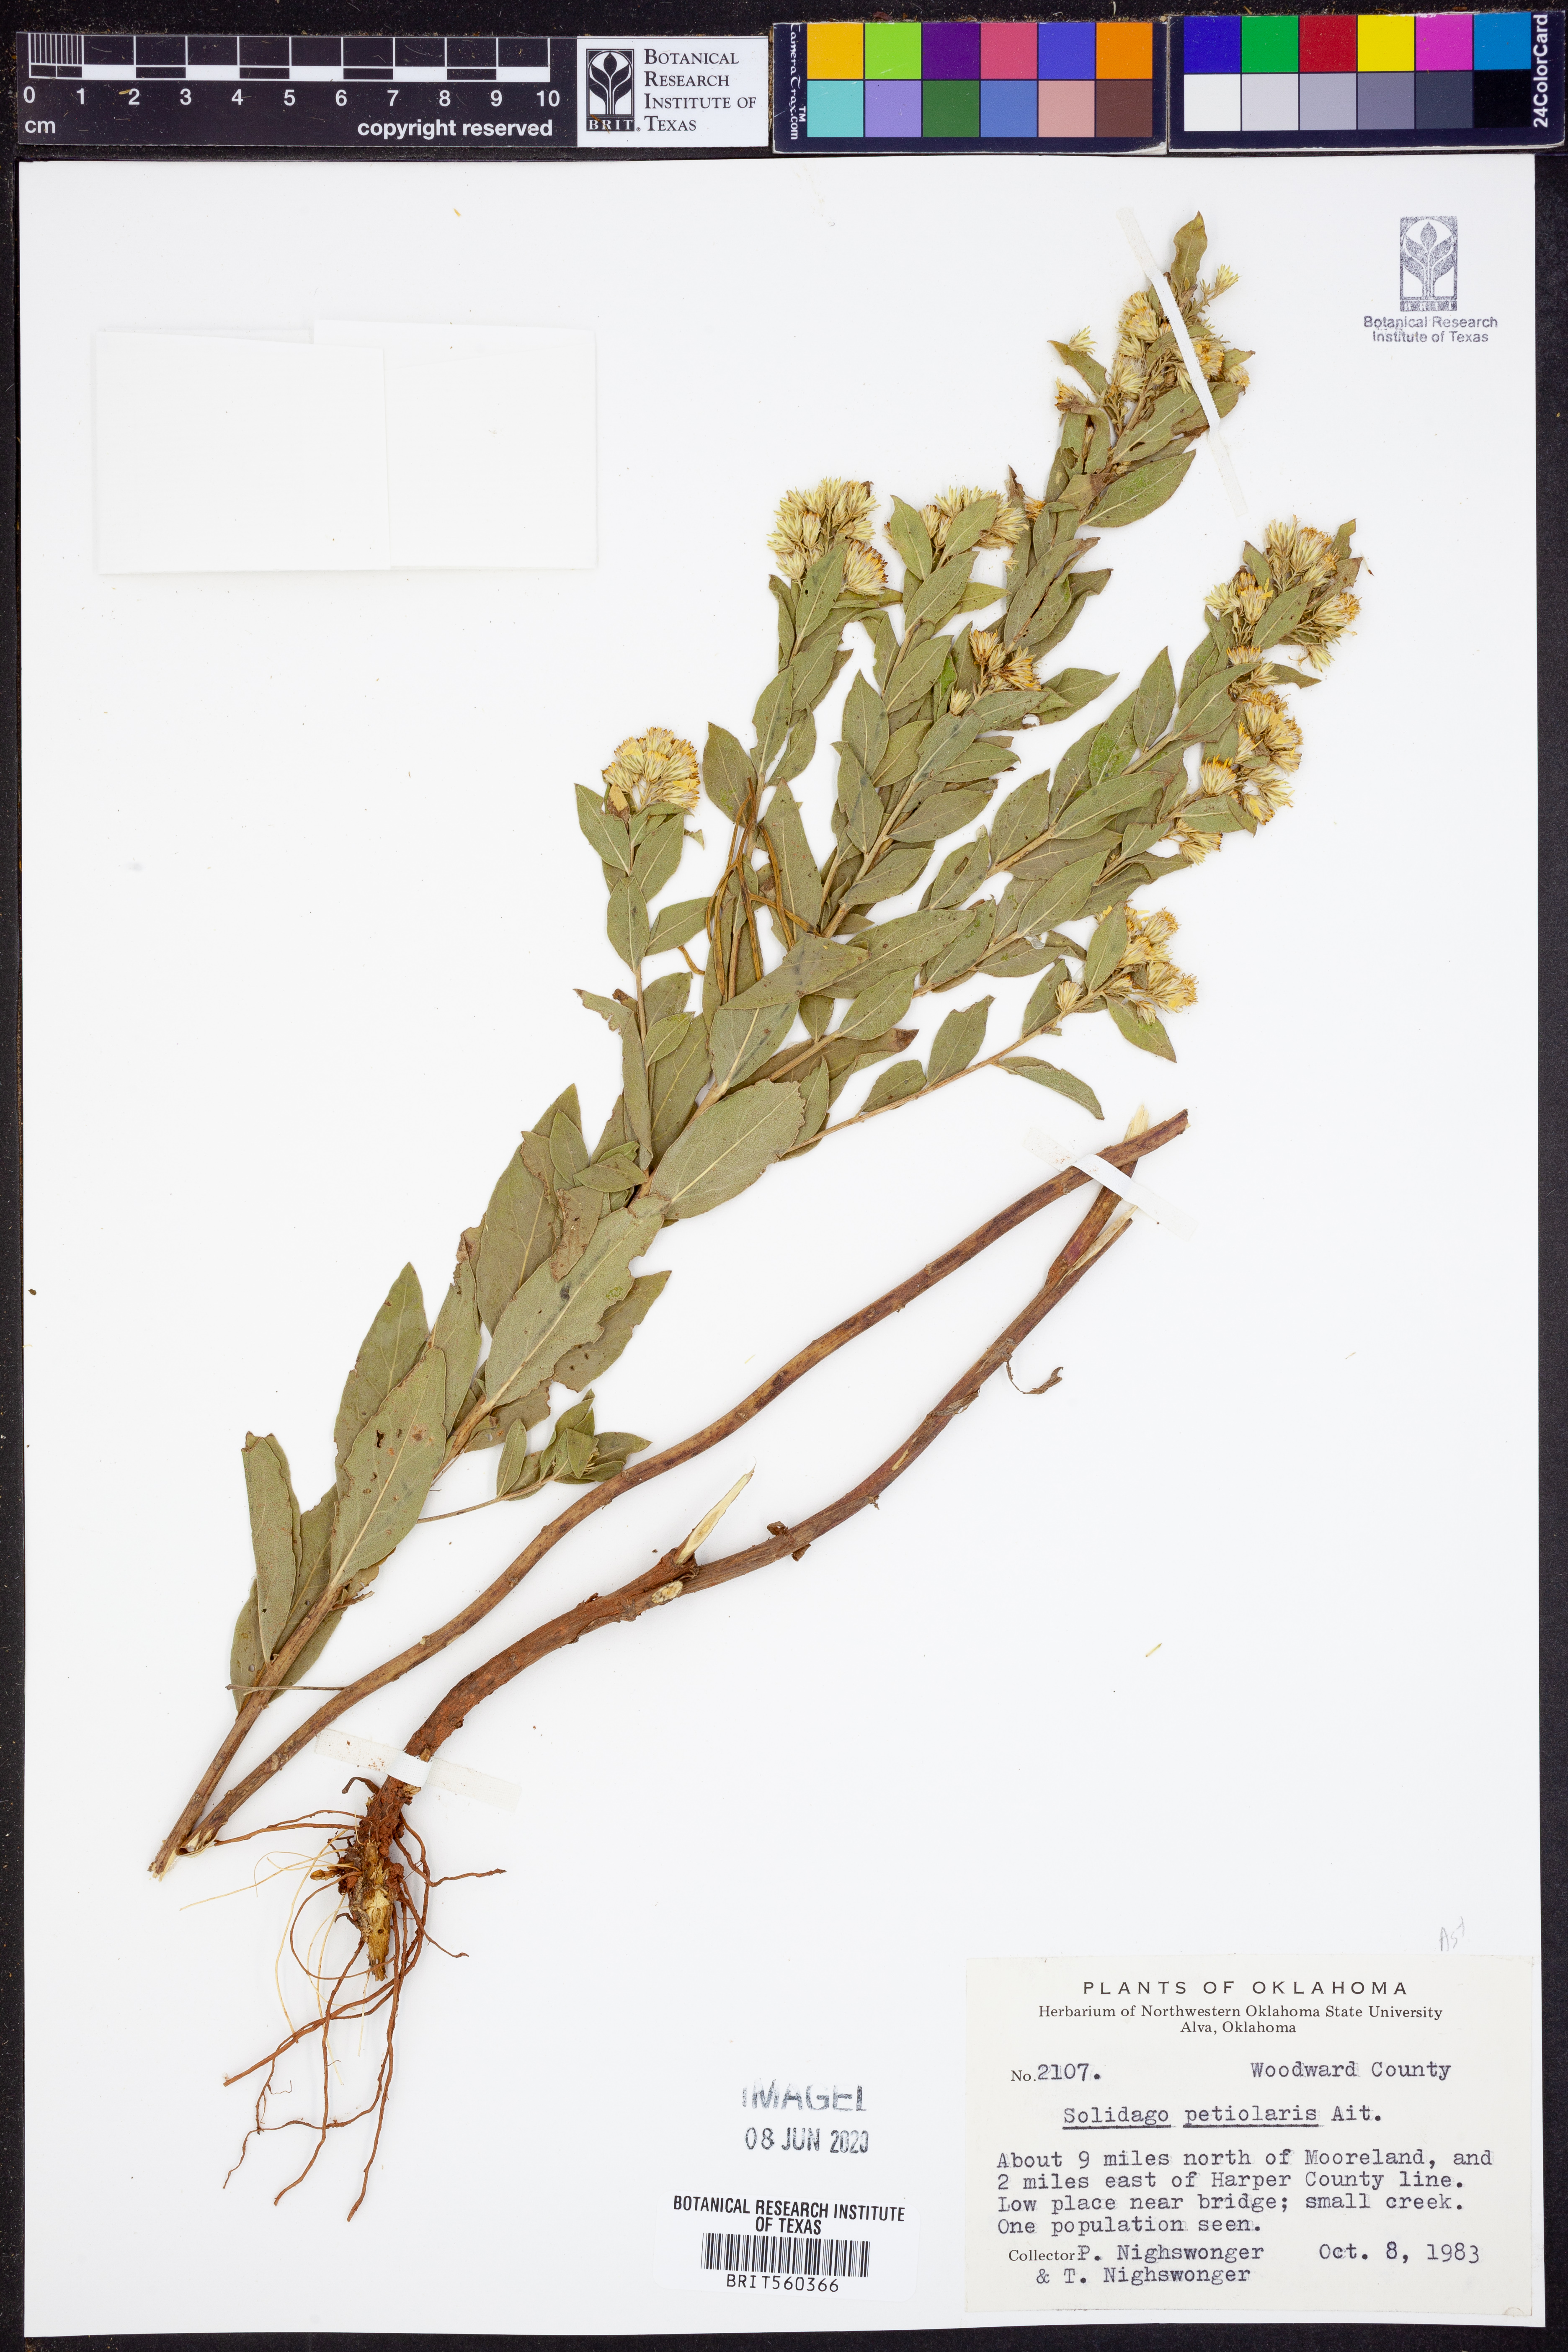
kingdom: Plantae
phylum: Tracheophyta
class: Magnoliopsida
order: Asterales
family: Asteraceae
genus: Solidago
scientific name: Solidago petiolaris
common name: Downy ragged goldenrod
